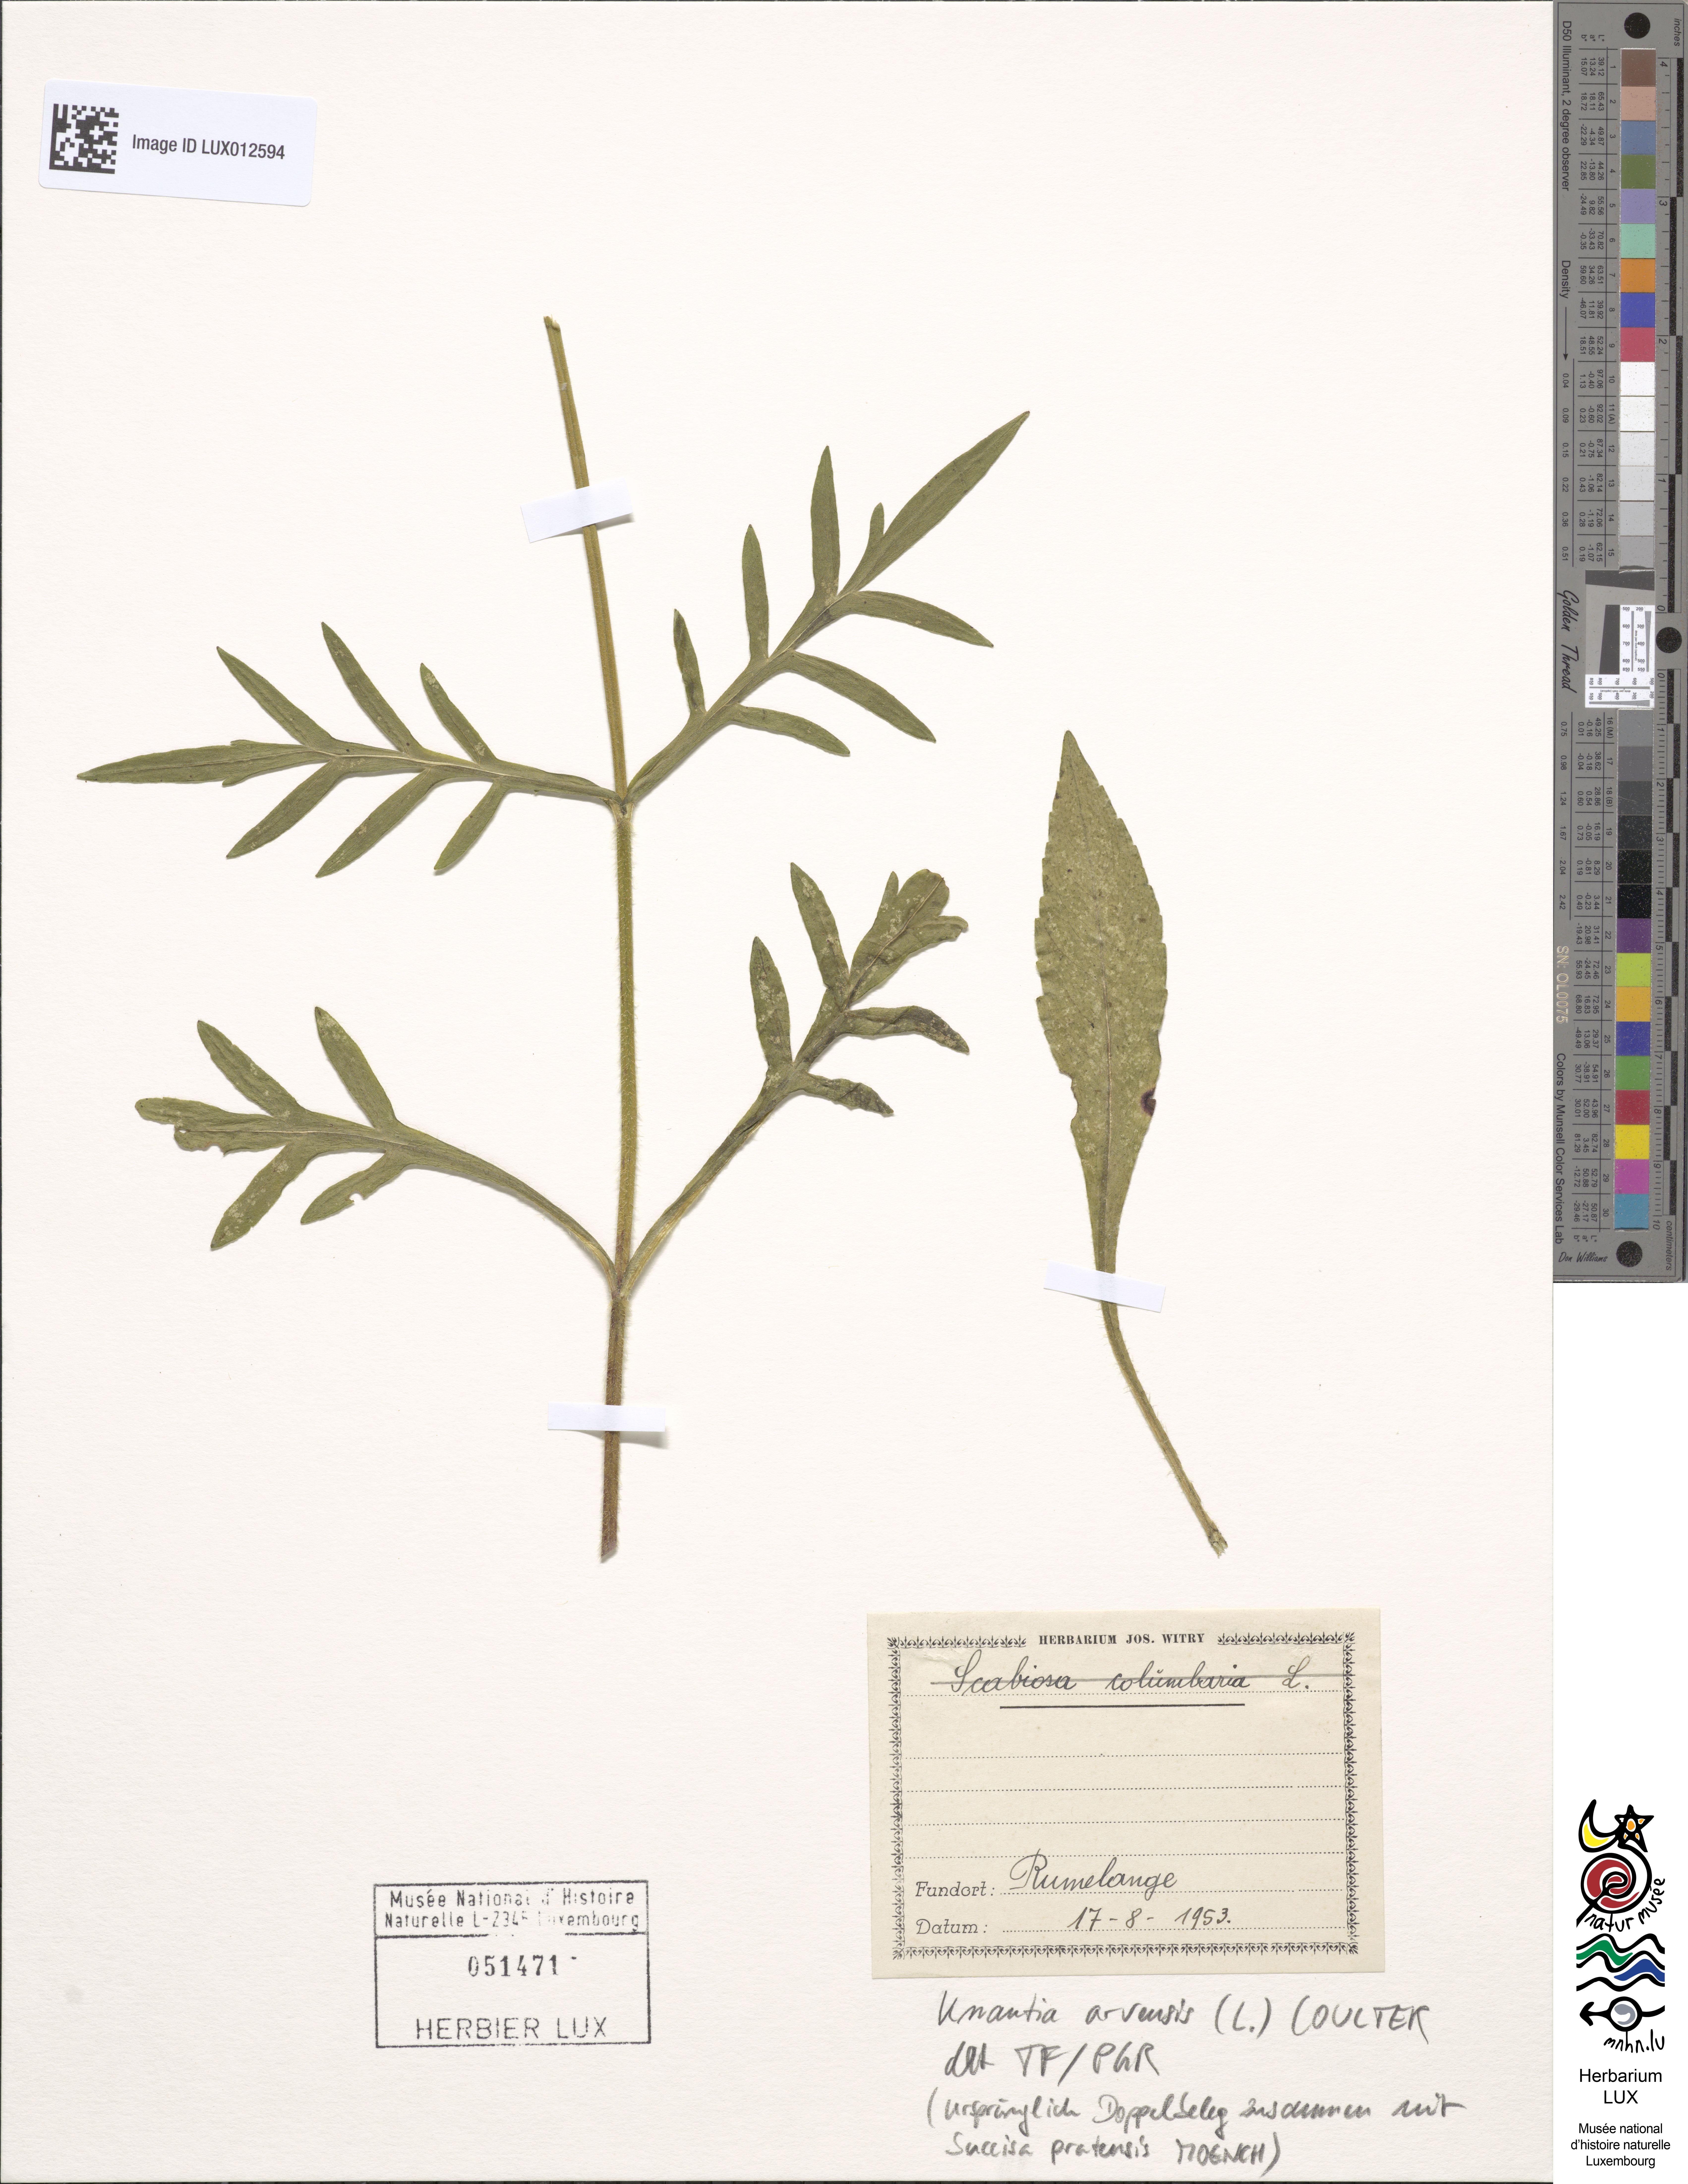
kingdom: Plantae
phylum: Tracheophyta
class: Magnoliopsida
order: Dipsacales
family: Caprifoliaceae
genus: Knautia
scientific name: Knautia arvensis
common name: Field scabiosa
